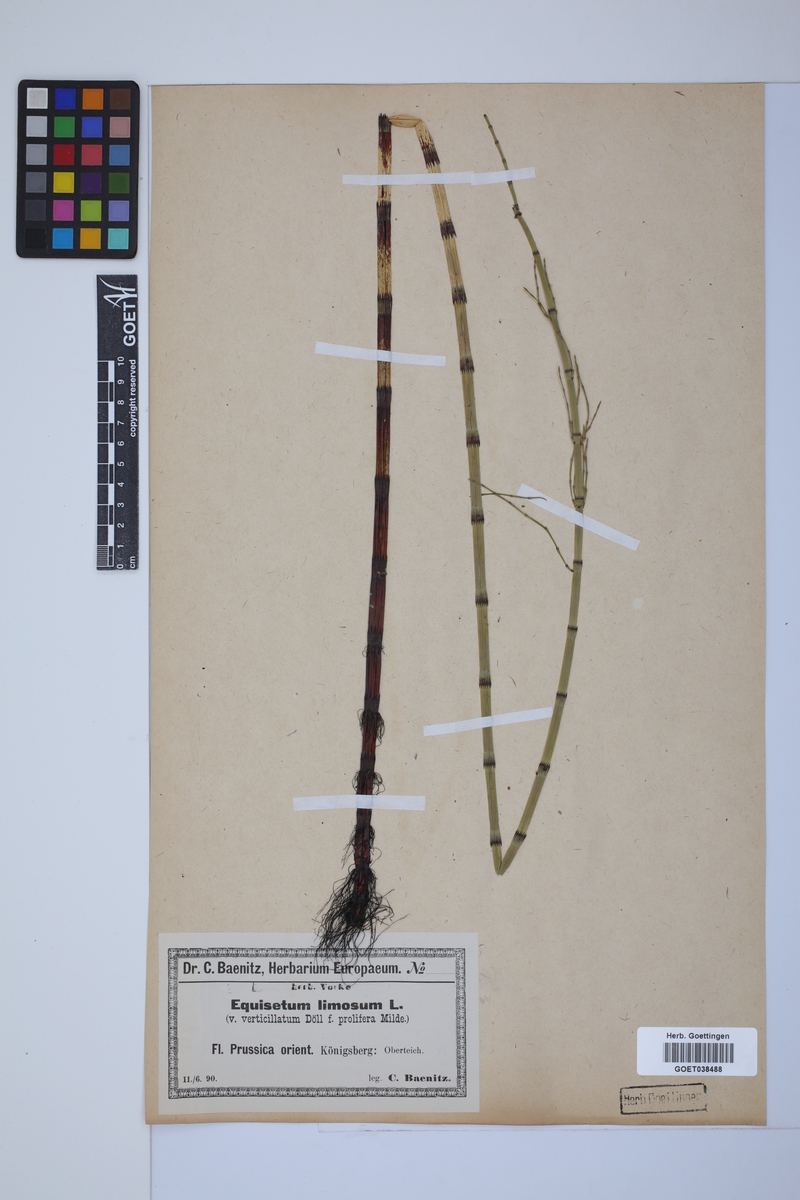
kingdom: Plantae
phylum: Tracheophyta
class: Polypodiopsida
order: Equisetales
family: Equisetaceae
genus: Equisetum
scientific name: Equisetum fluviatile
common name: Water horsetail
